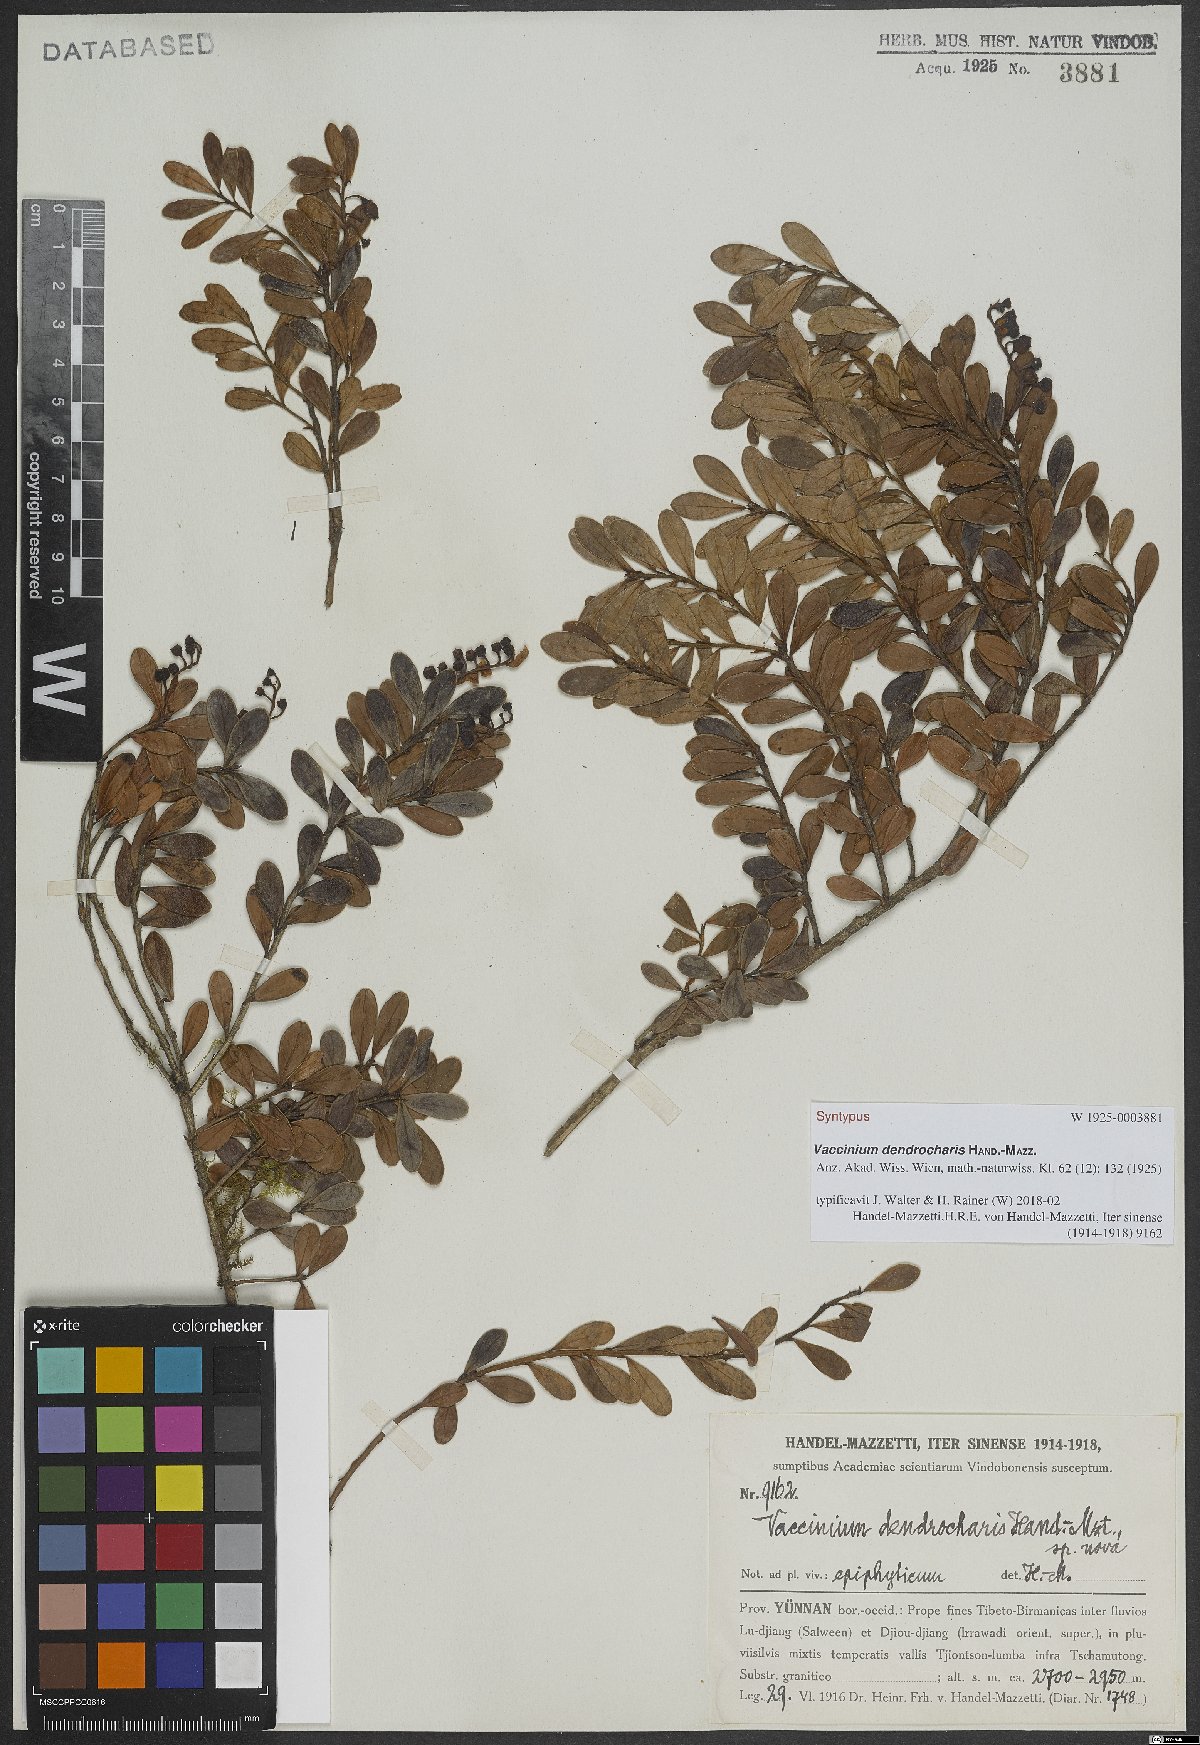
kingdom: Plantae
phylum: Tracheophyta
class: Magnoliopsida
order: Ericales
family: Ericaceae
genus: Vaccinium
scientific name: Vaccinium dendrocharis
